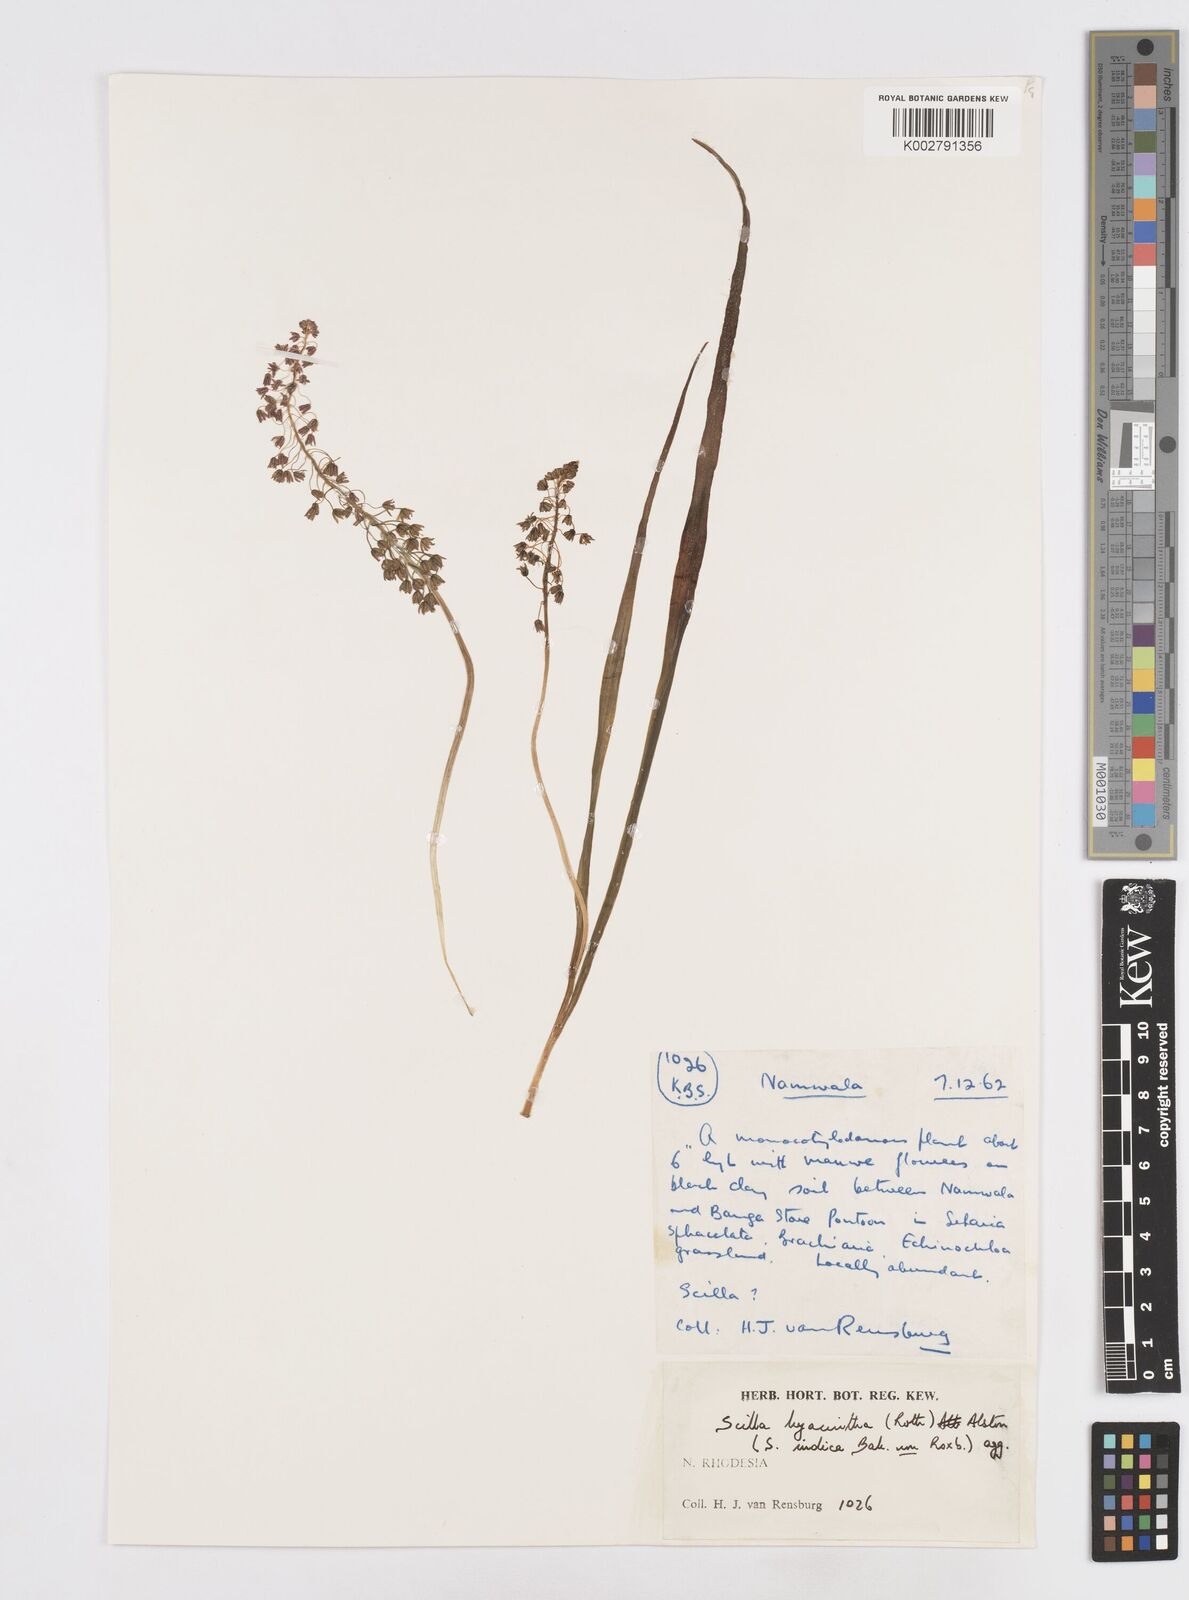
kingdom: Plantae
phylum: Tracheophyta
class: Liliopsida
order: Asparagales
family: Asparagaceae
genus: Ledebouria
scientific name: Ledebouria revoluta
